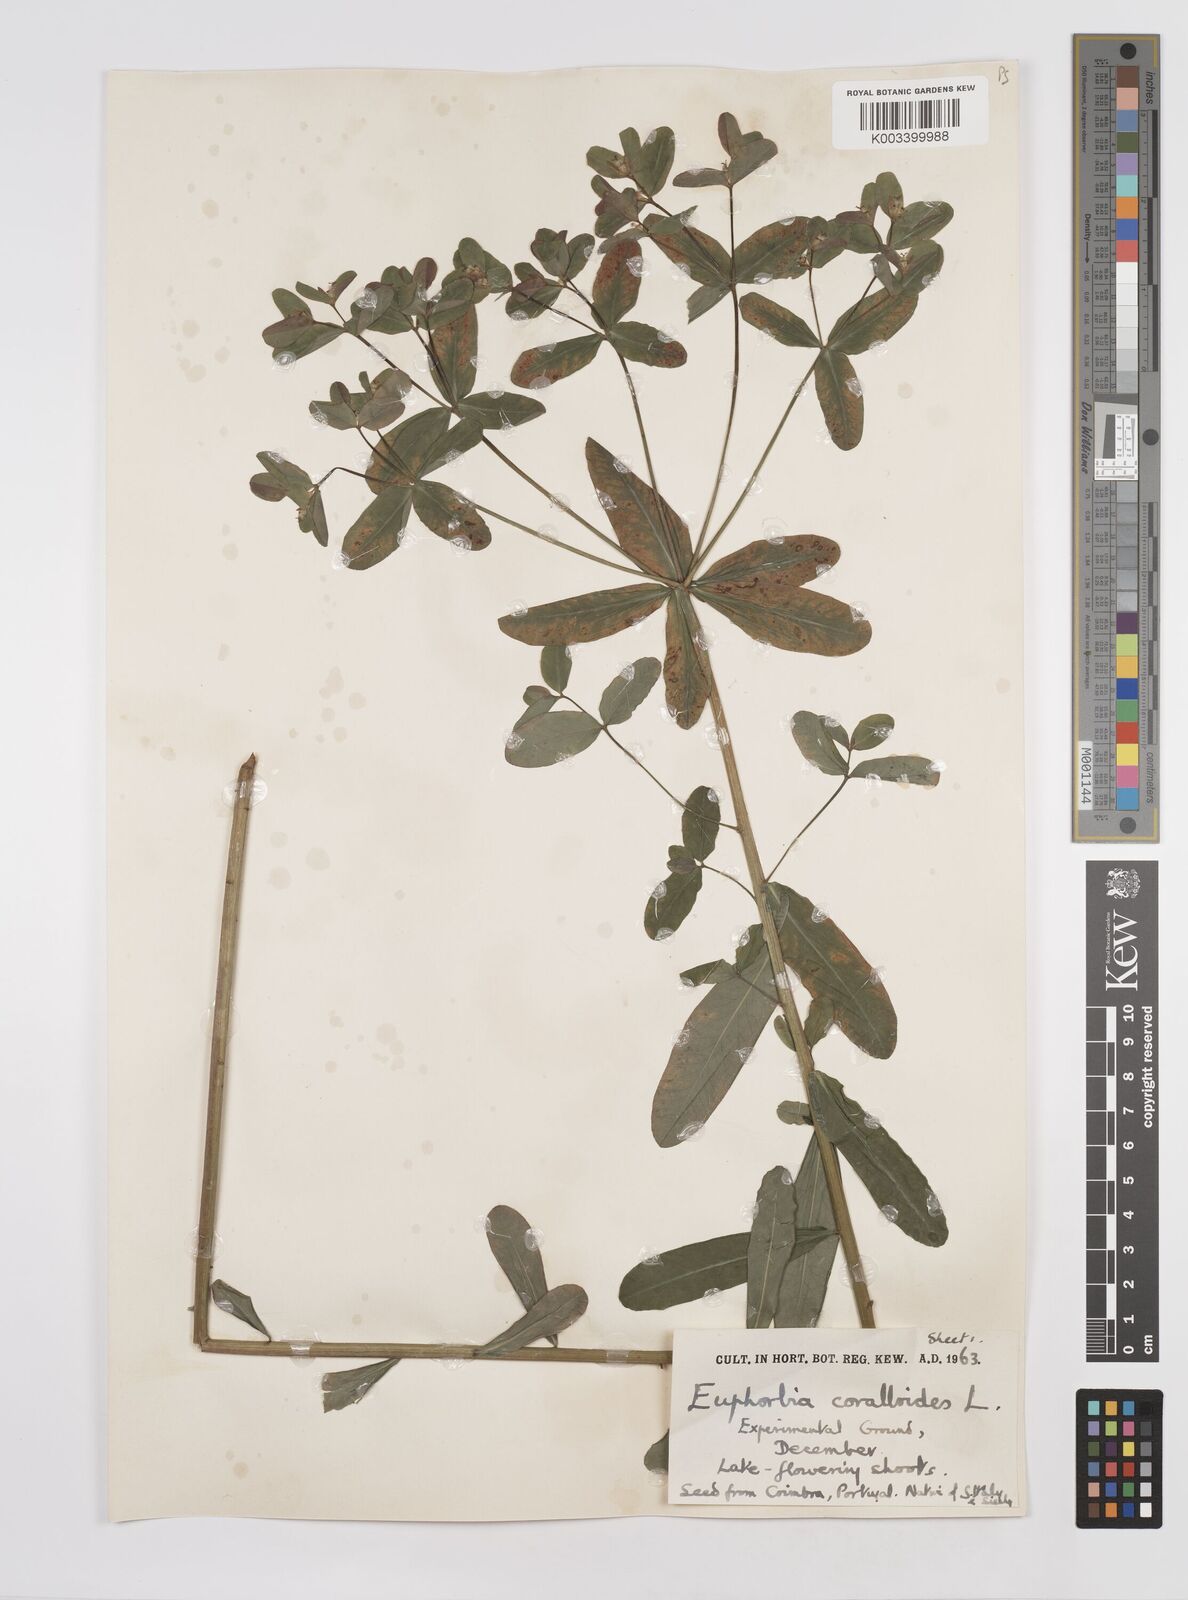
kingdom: Plantae
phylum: Tracheophyta
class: Magnoliopsida
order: Malpighiales
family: Euphorbiaceae
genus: Euphorbia
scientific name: Euphorbia corallioides
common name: Coral spurge
